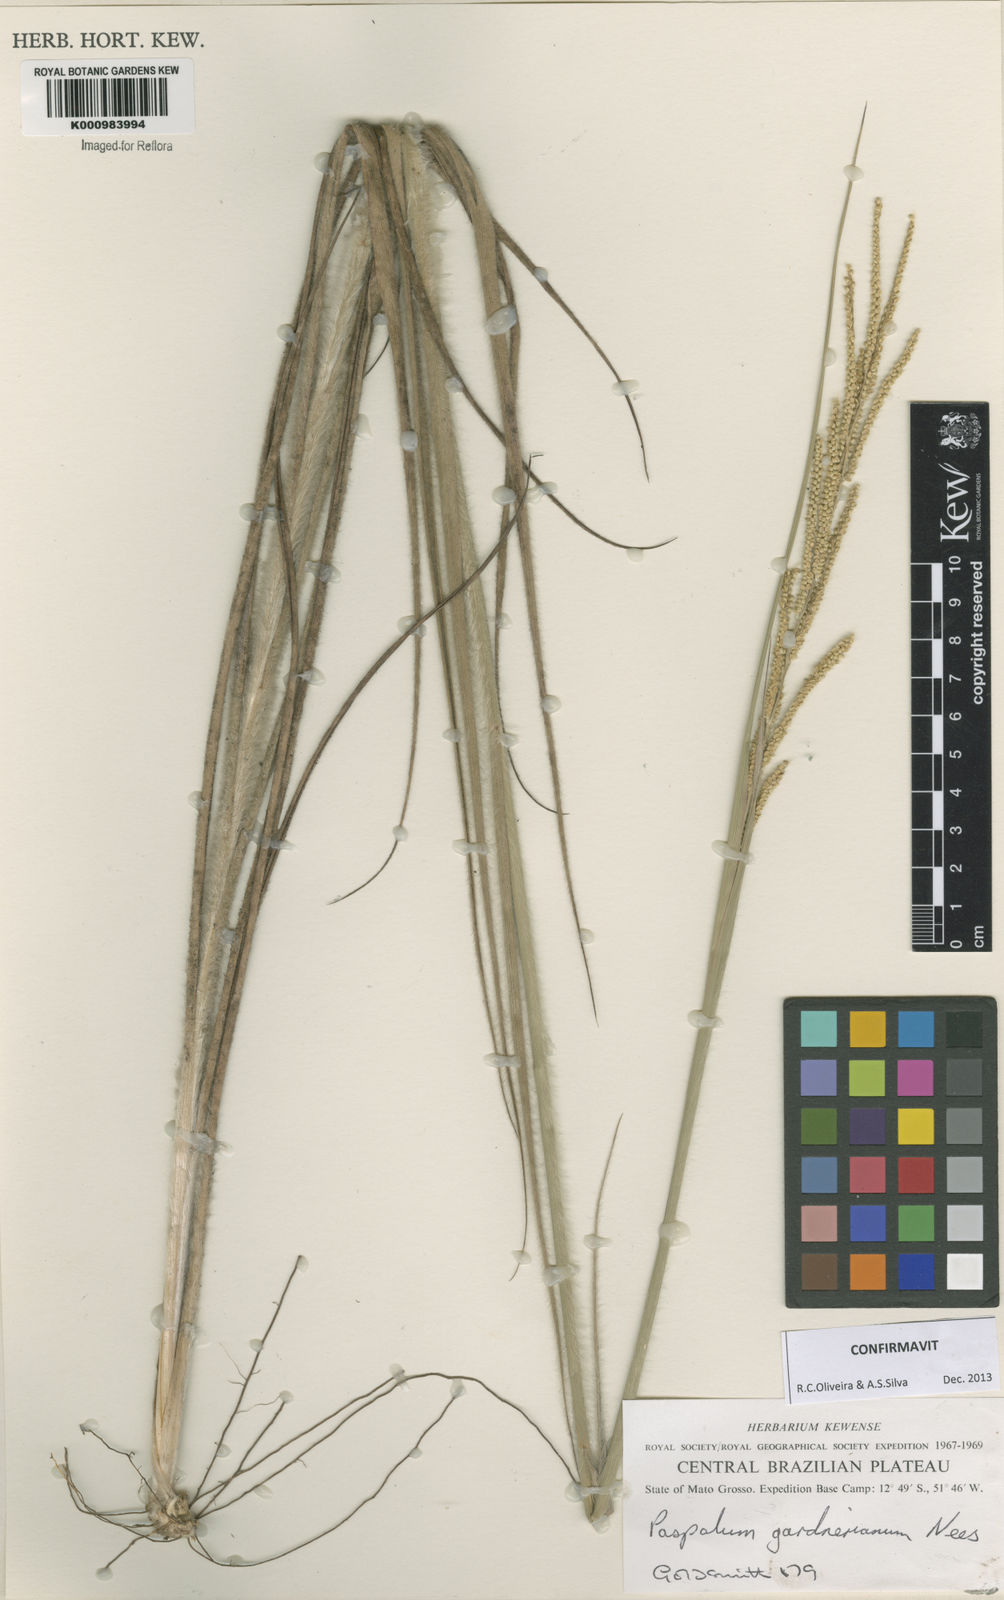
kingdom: Plantae
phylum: Tracheophyta
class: Liliopsida
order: Poales
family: Poaceae
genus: Paspalum
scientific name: Paspalum gardnerianum
